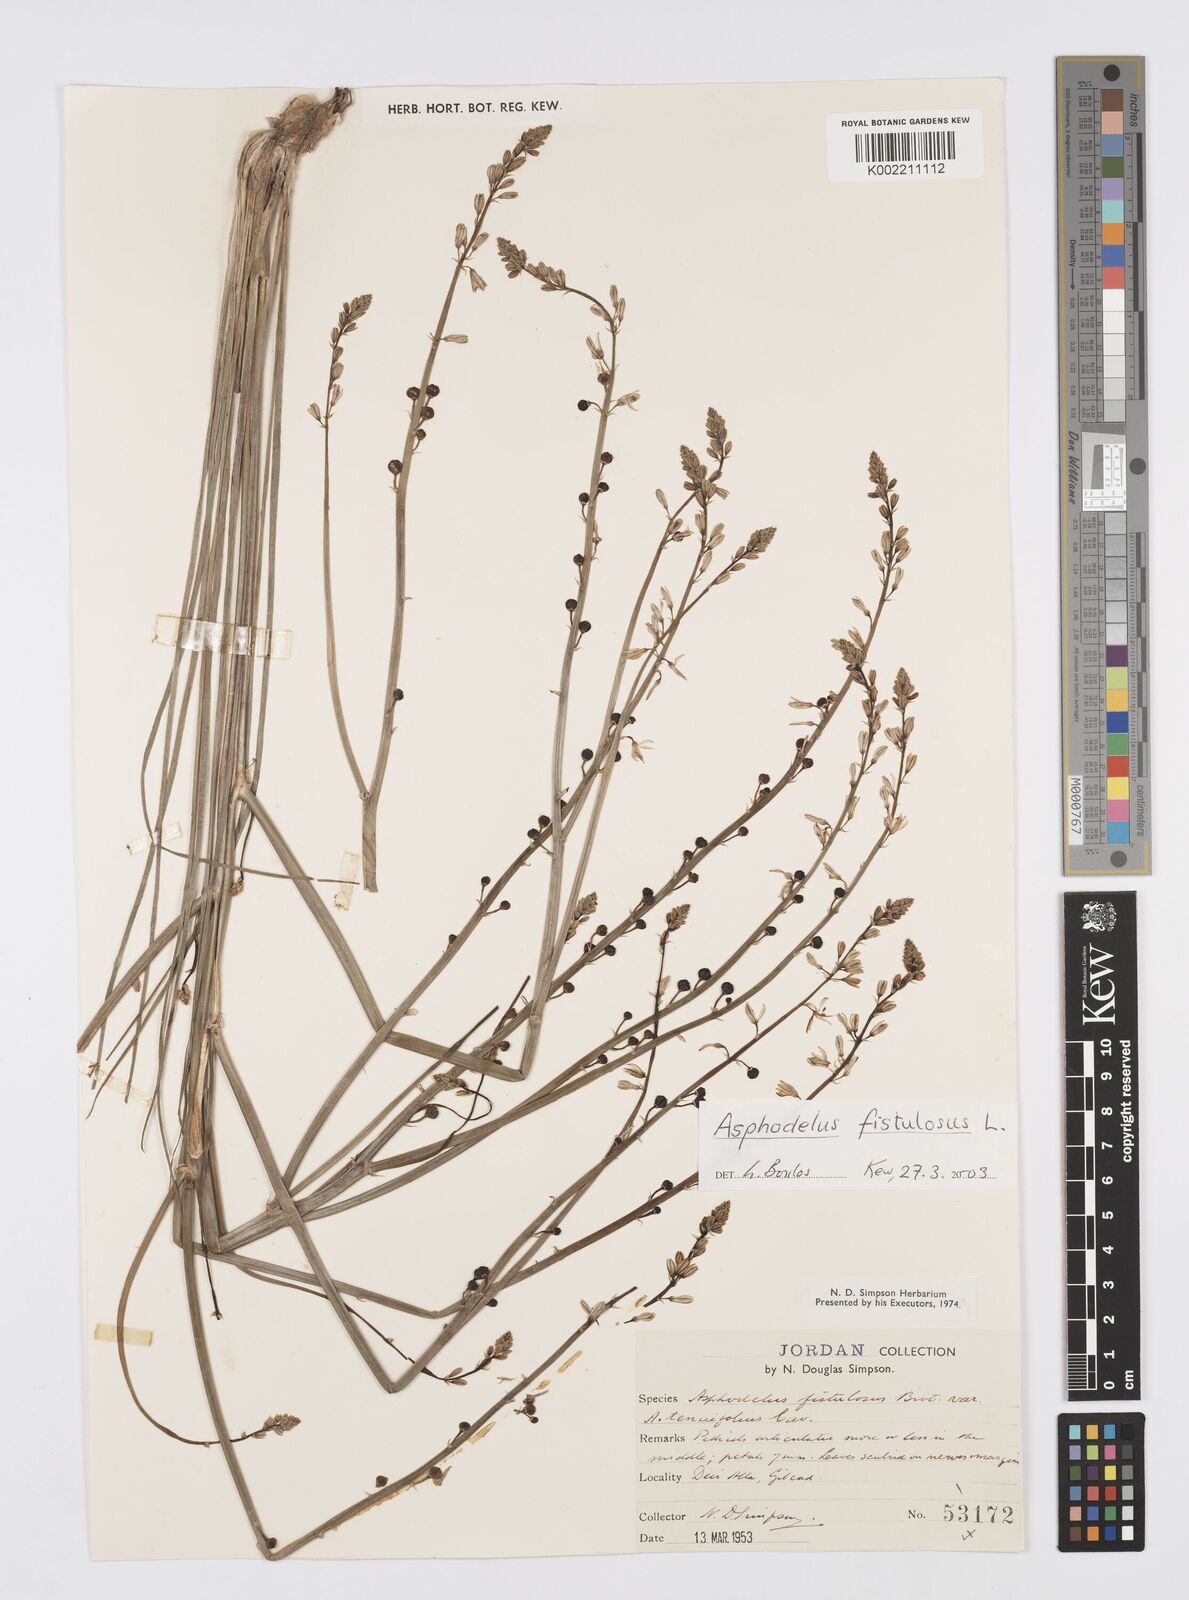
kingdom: Plantae
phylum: Tracheophyta
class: Liliopsida
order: Asparagales
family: Asphodelaceae
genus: Asphodelus
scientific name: Asphodelus fistulosus
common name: Onionweed
